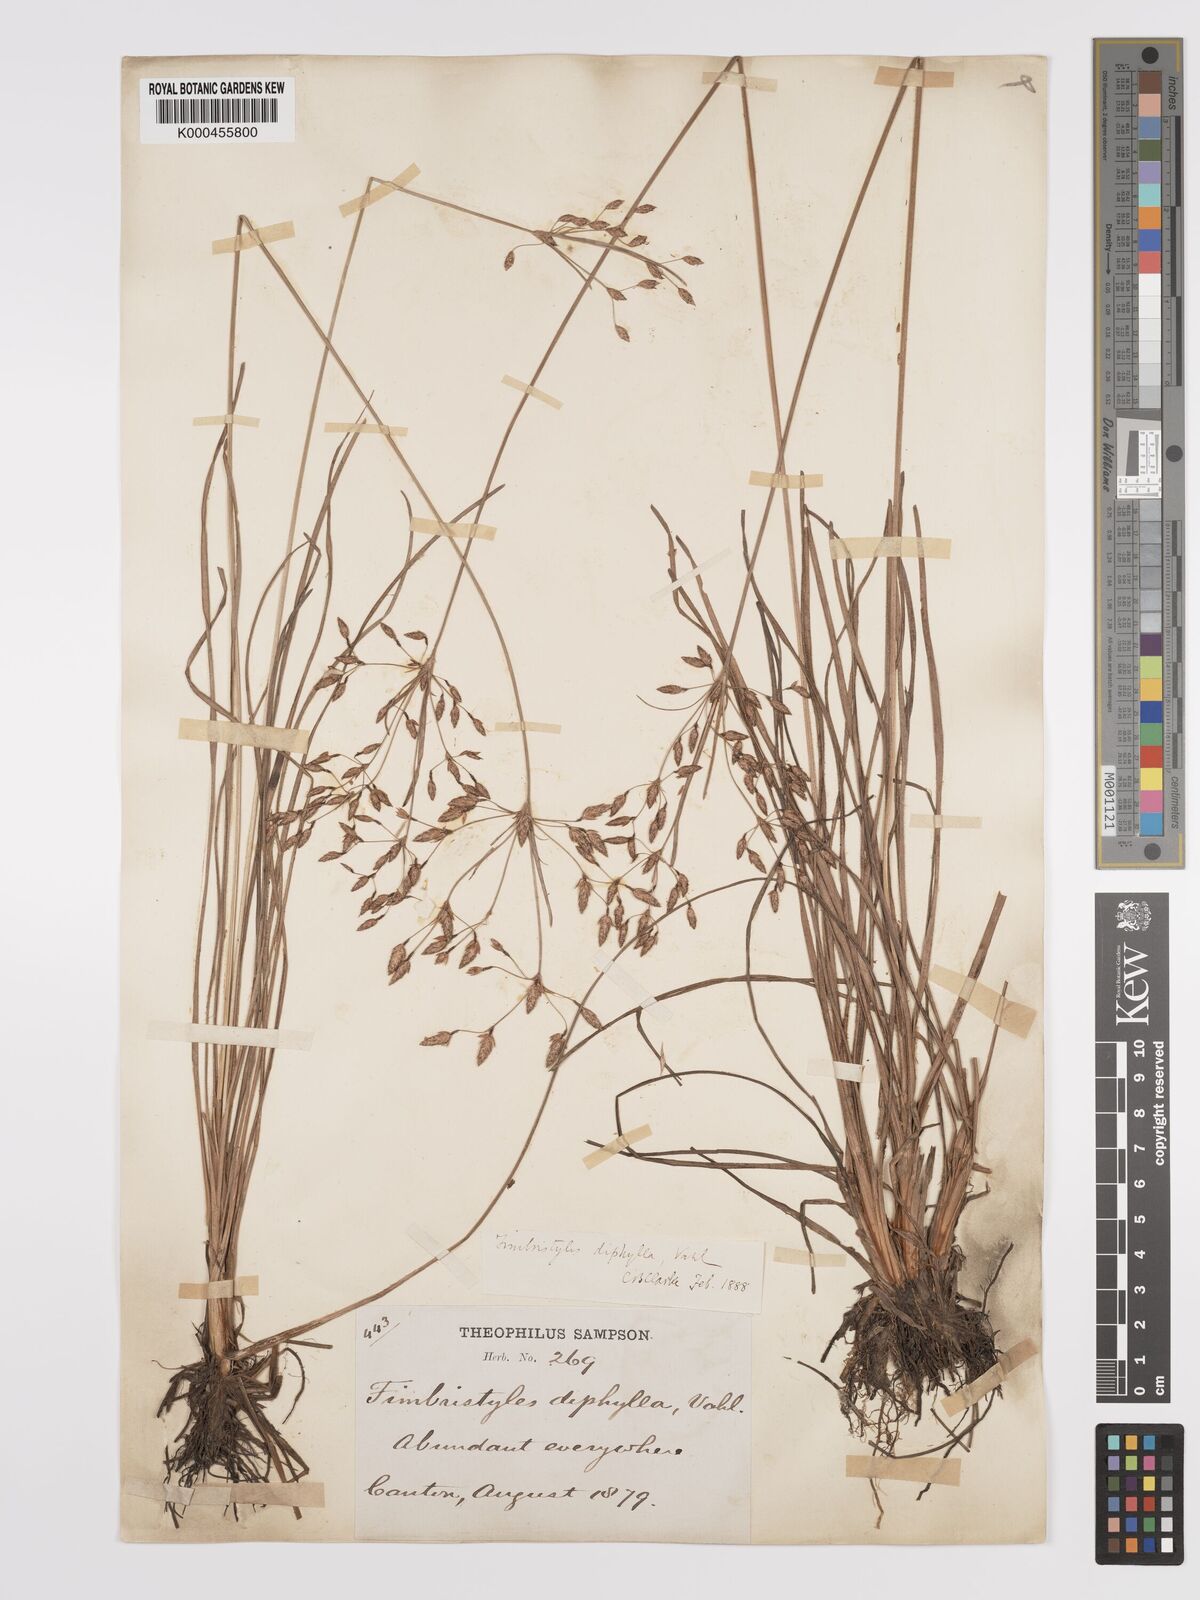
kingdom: Plantae
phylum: Tracheophyta
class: Liliopsida
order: Poales
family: Cyperaceae
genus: Fimbristylis
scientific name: Fimbristylis dichotoma
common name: Forked fimbry
